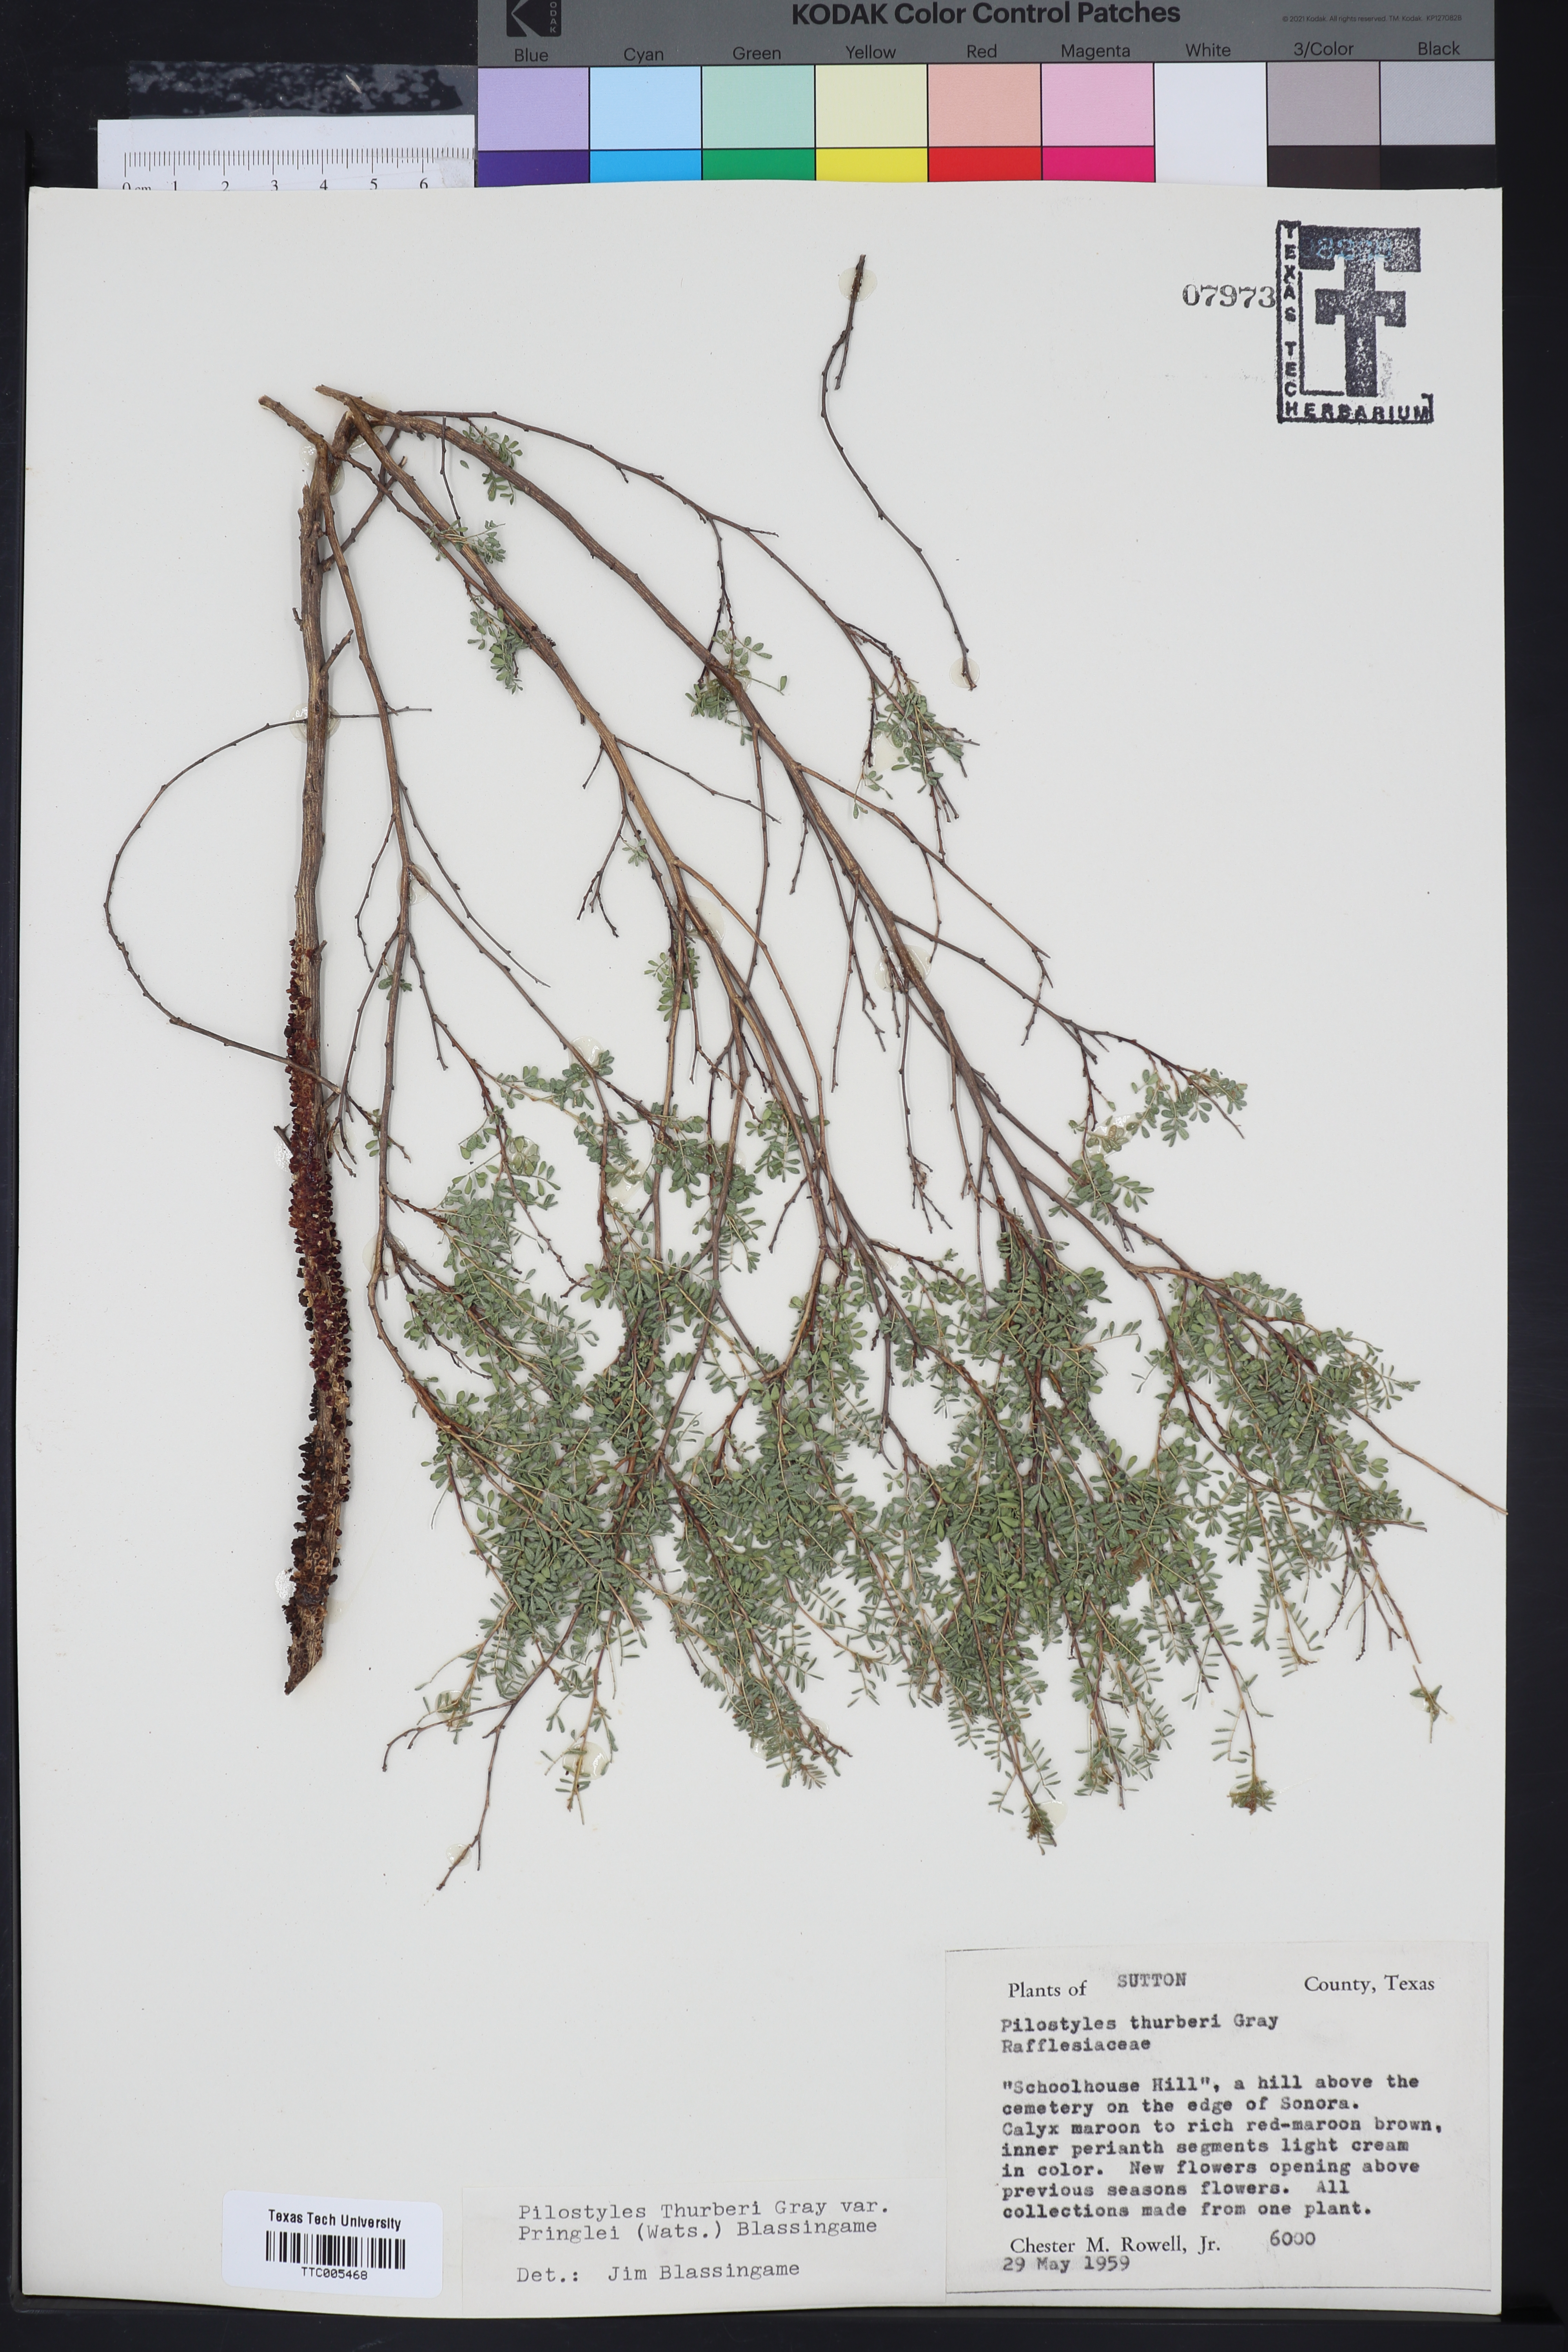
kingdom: Plantae
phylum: Tracheophyta
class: Magnoliopsida
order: Cucurbitales
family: Apodanthaceae
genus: Pilostyles
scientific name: Pilostyles thurberi
